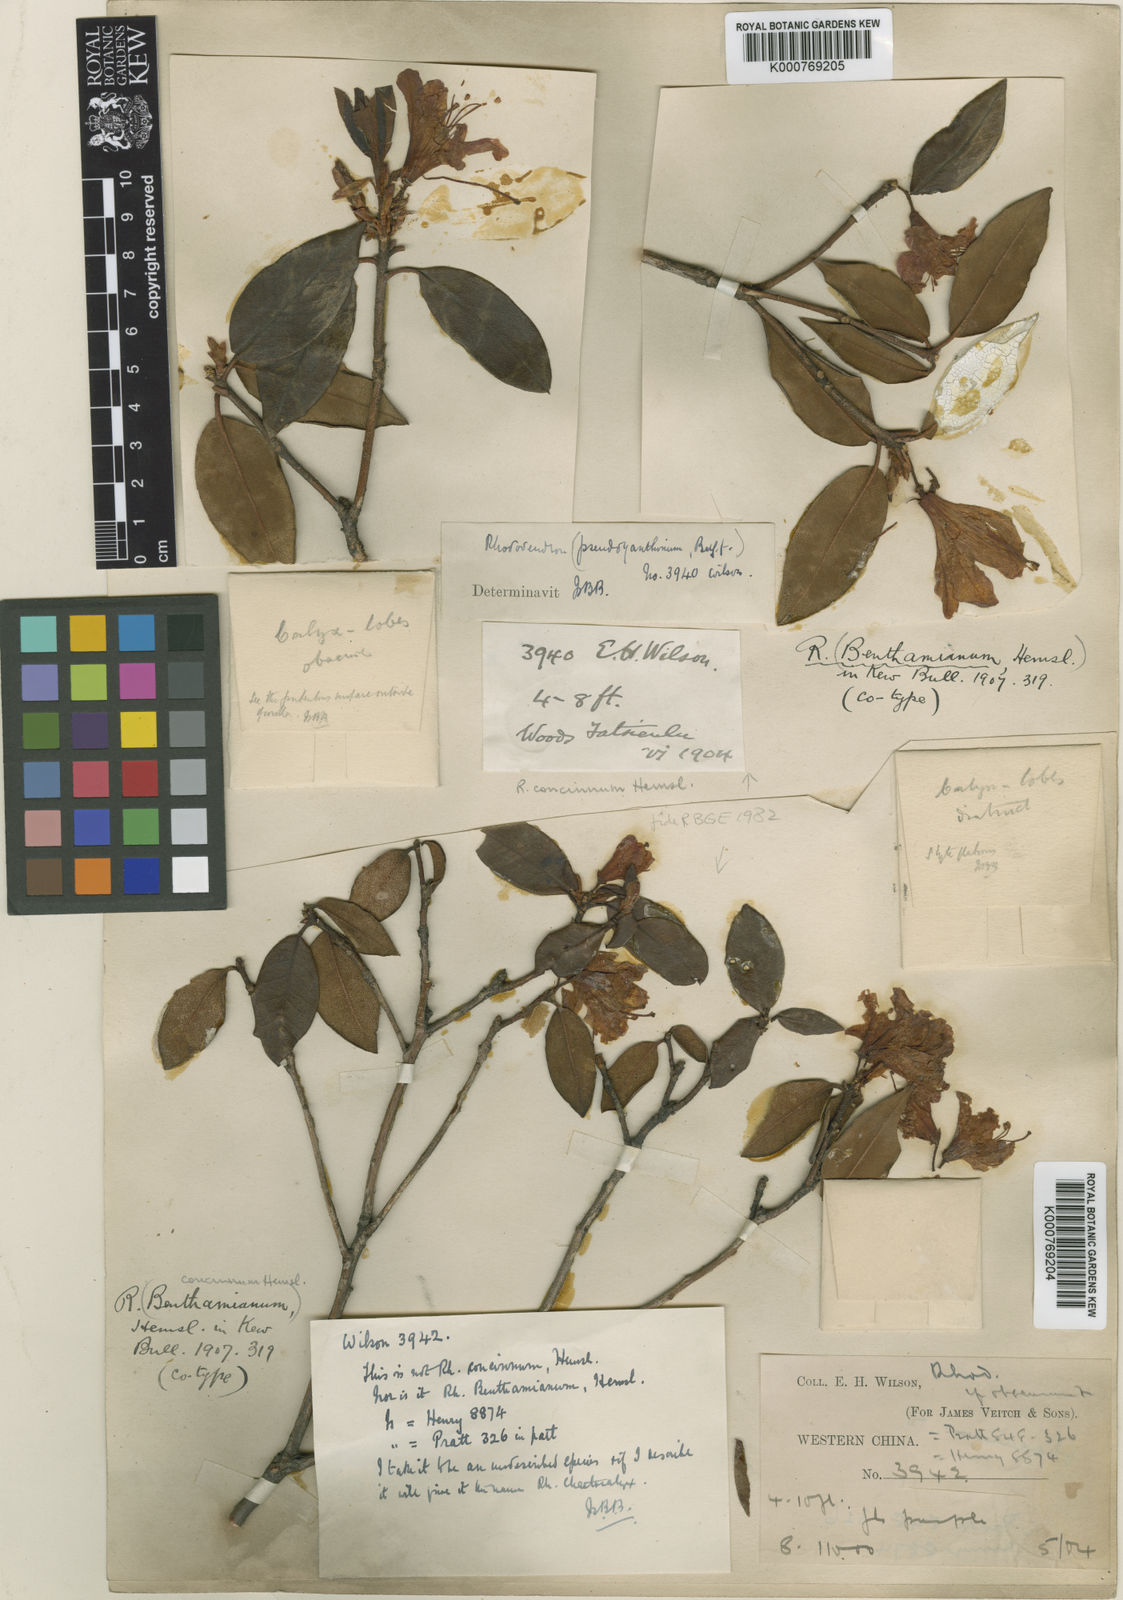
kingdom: Plantae
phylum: Tracheophyta
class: Magnoliopsida
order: Ericales
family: Ericaceae
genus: Rhododendron
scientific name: Rhododendron concinnum
